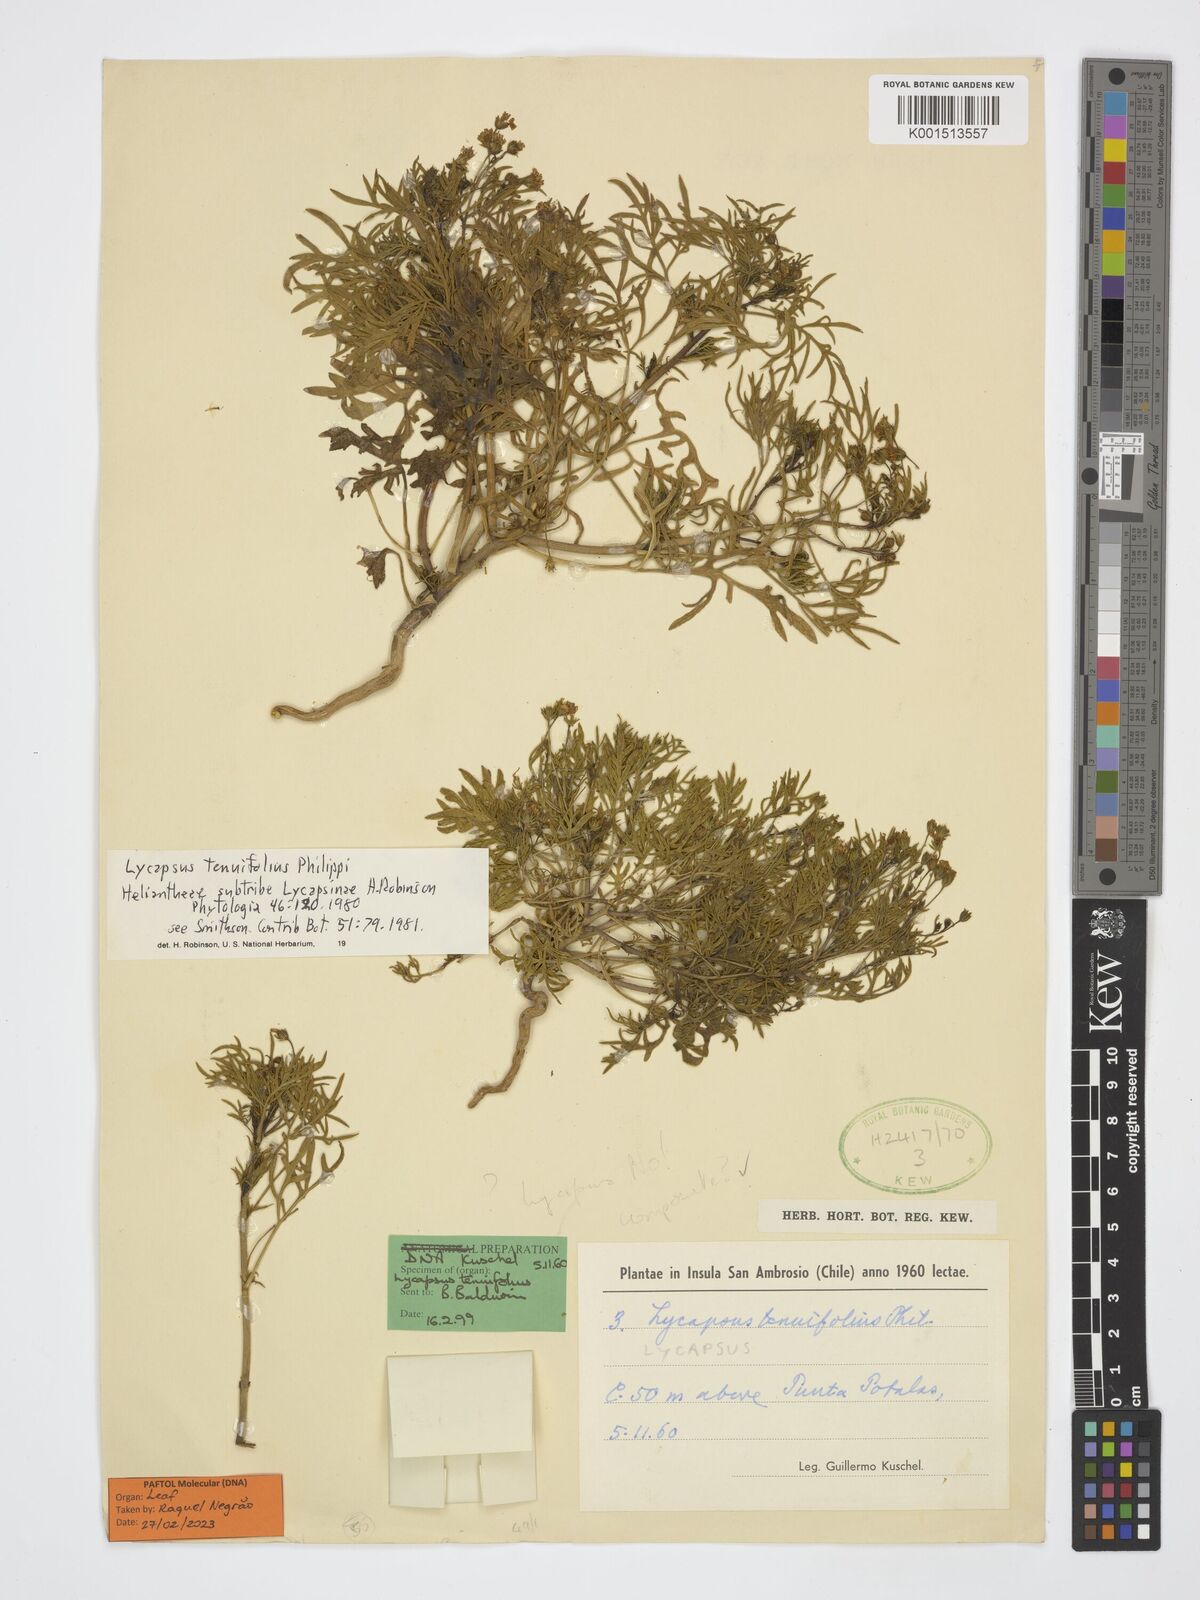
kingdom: Plantae
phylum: Tracheophyta
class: Magnoliopsida
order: Asterales
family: Asteraceae
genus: Perityle
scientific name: Perityle tenuifolius
